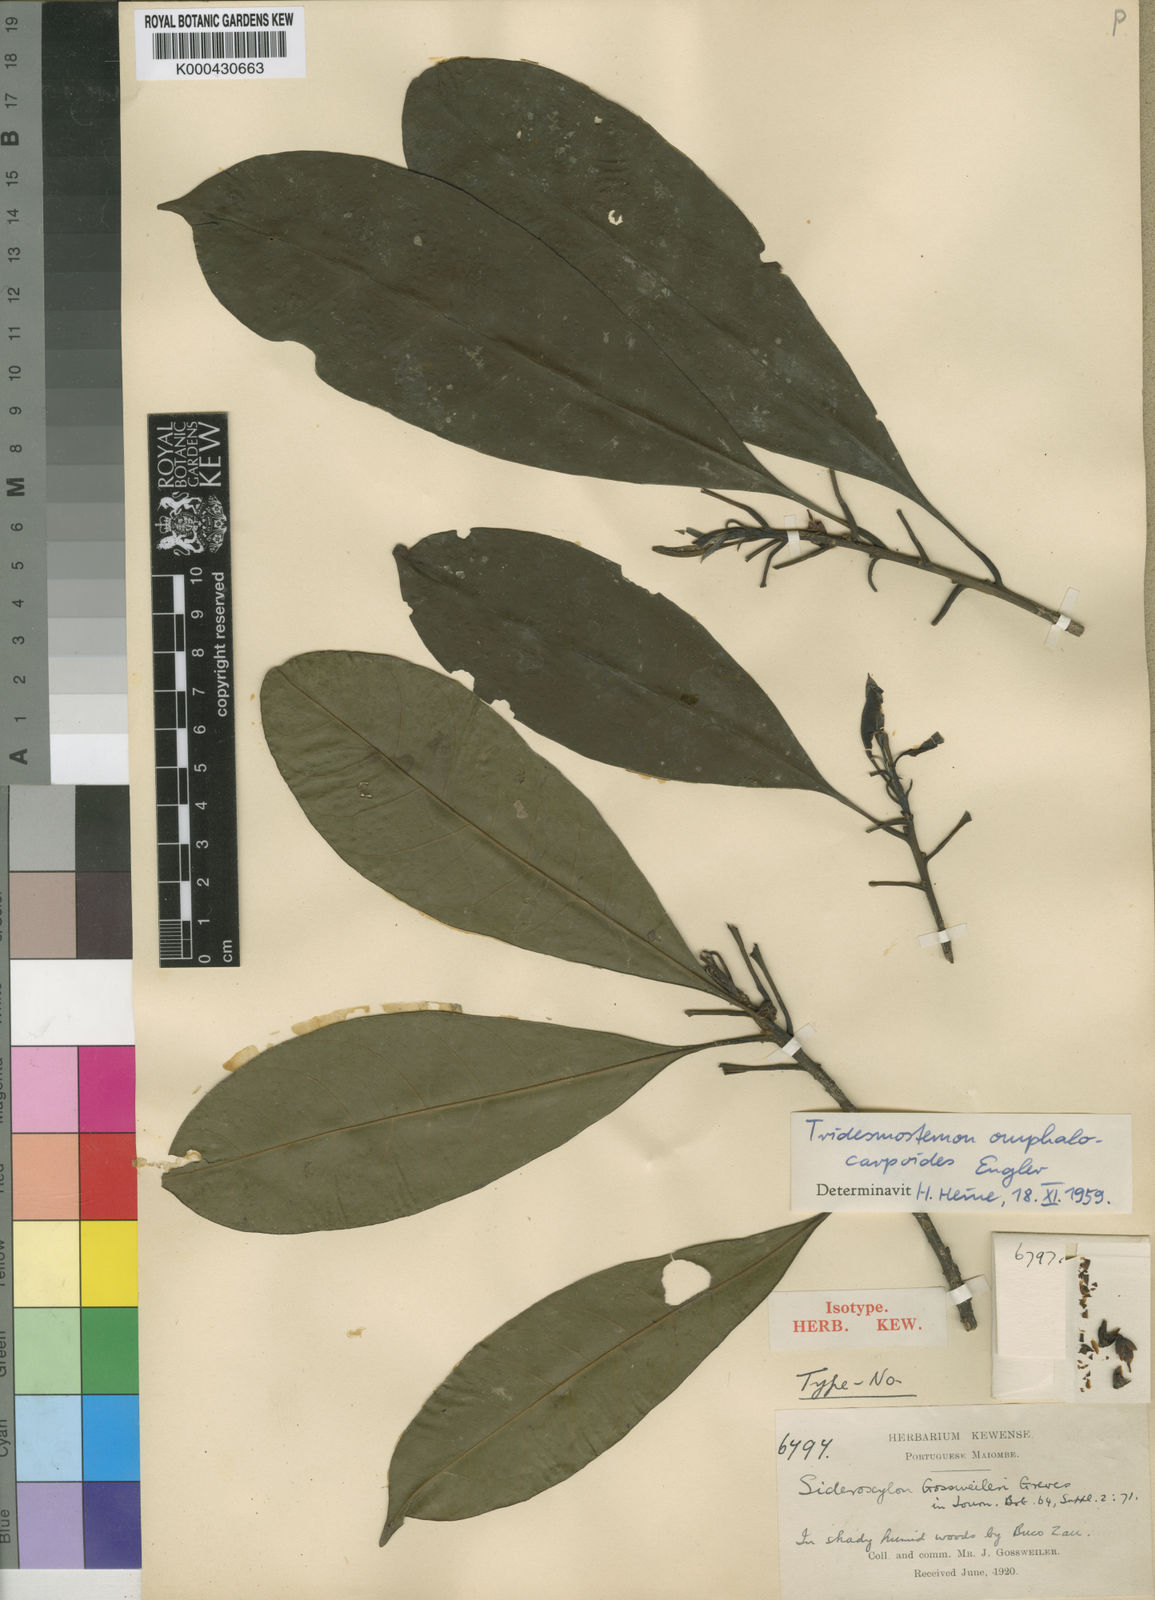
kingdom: Plantae
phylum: Tracheophyta
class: Magnoliopsida
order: Ericales
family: Sapotaceae
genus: Tridesmostemon
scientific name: Tridesmostemon omphalocarpoides
